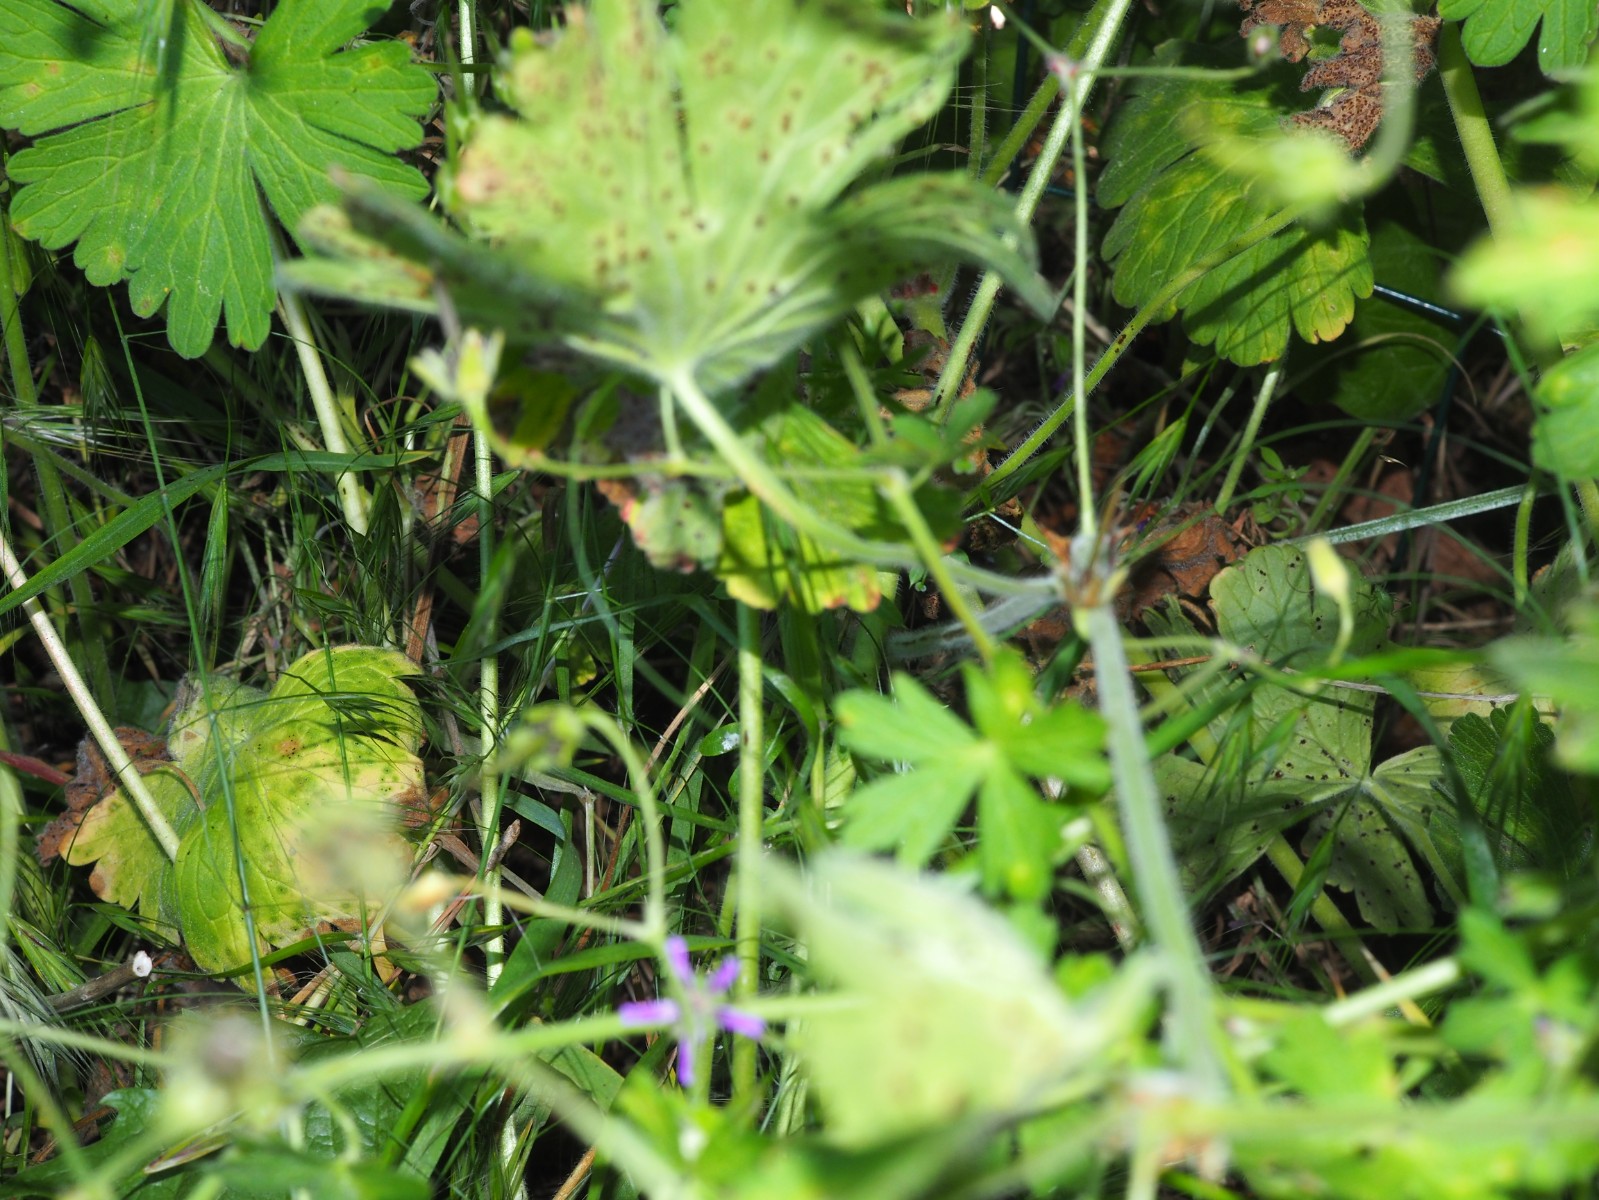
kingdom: Fungi
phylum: Basidiomycota
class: Pucciniomycetes
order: Pucciniales
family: Pucciniaceae
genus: Uromyces
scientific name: Uromyces geranii
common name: Geranium rust
